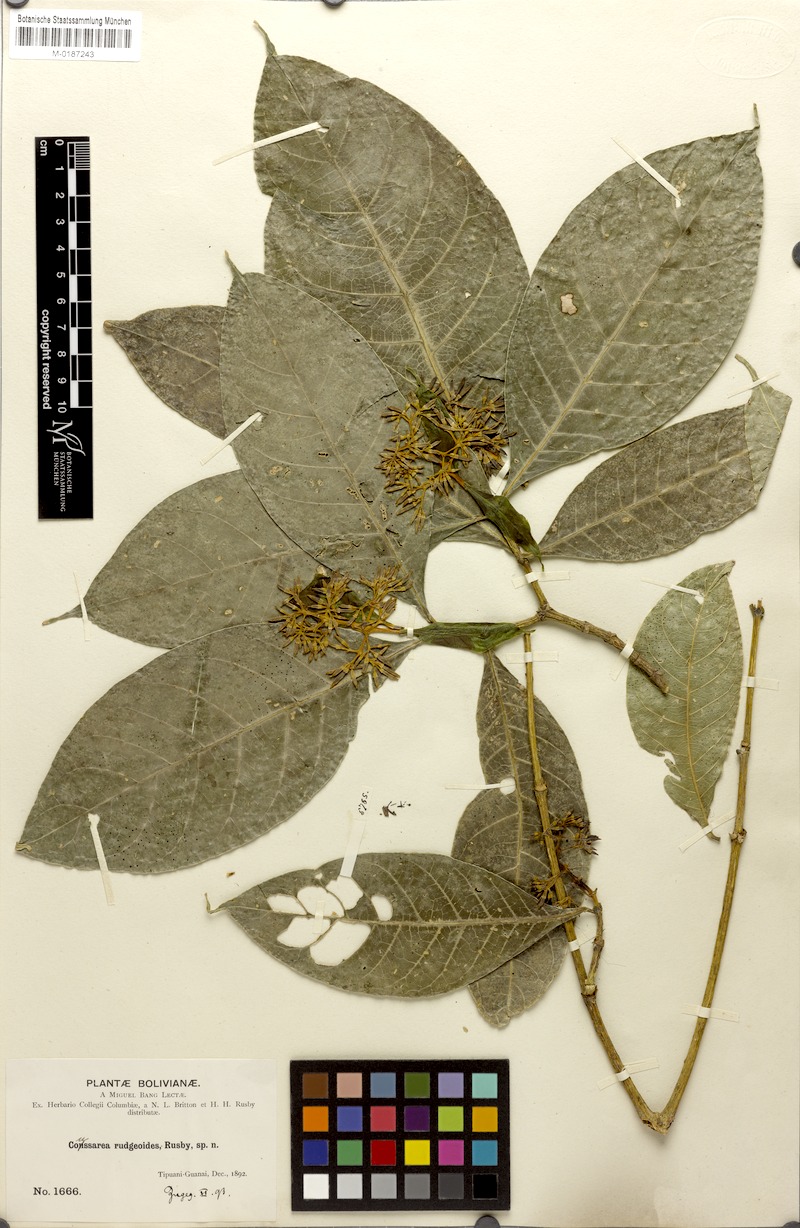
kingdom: Plantae
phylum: Tracheophyta
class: Magnoliopsida
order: Gentianales
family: Rubiaceae
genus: Coussarea
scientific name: Coussarea rudgeoides
